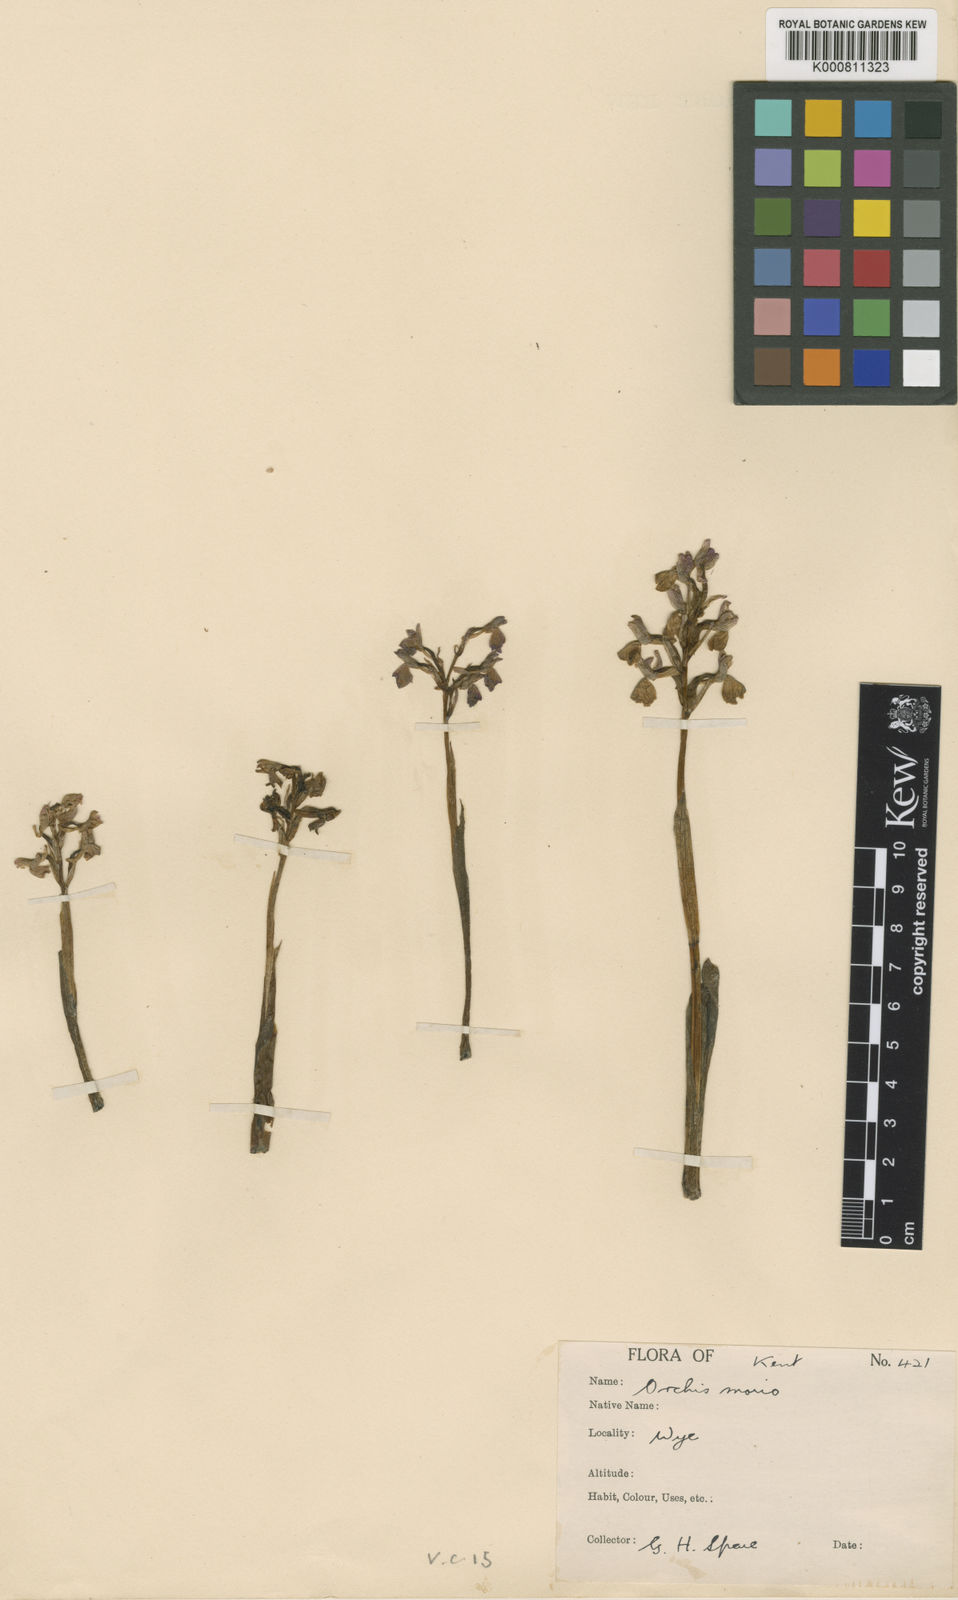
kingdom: Plantae
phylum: Tracheophyta
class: Liliopsida
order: Asparagales
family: Orchidaceae
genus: Anacamptis
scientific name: Anacamptis morio
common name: Green-winged orchid
